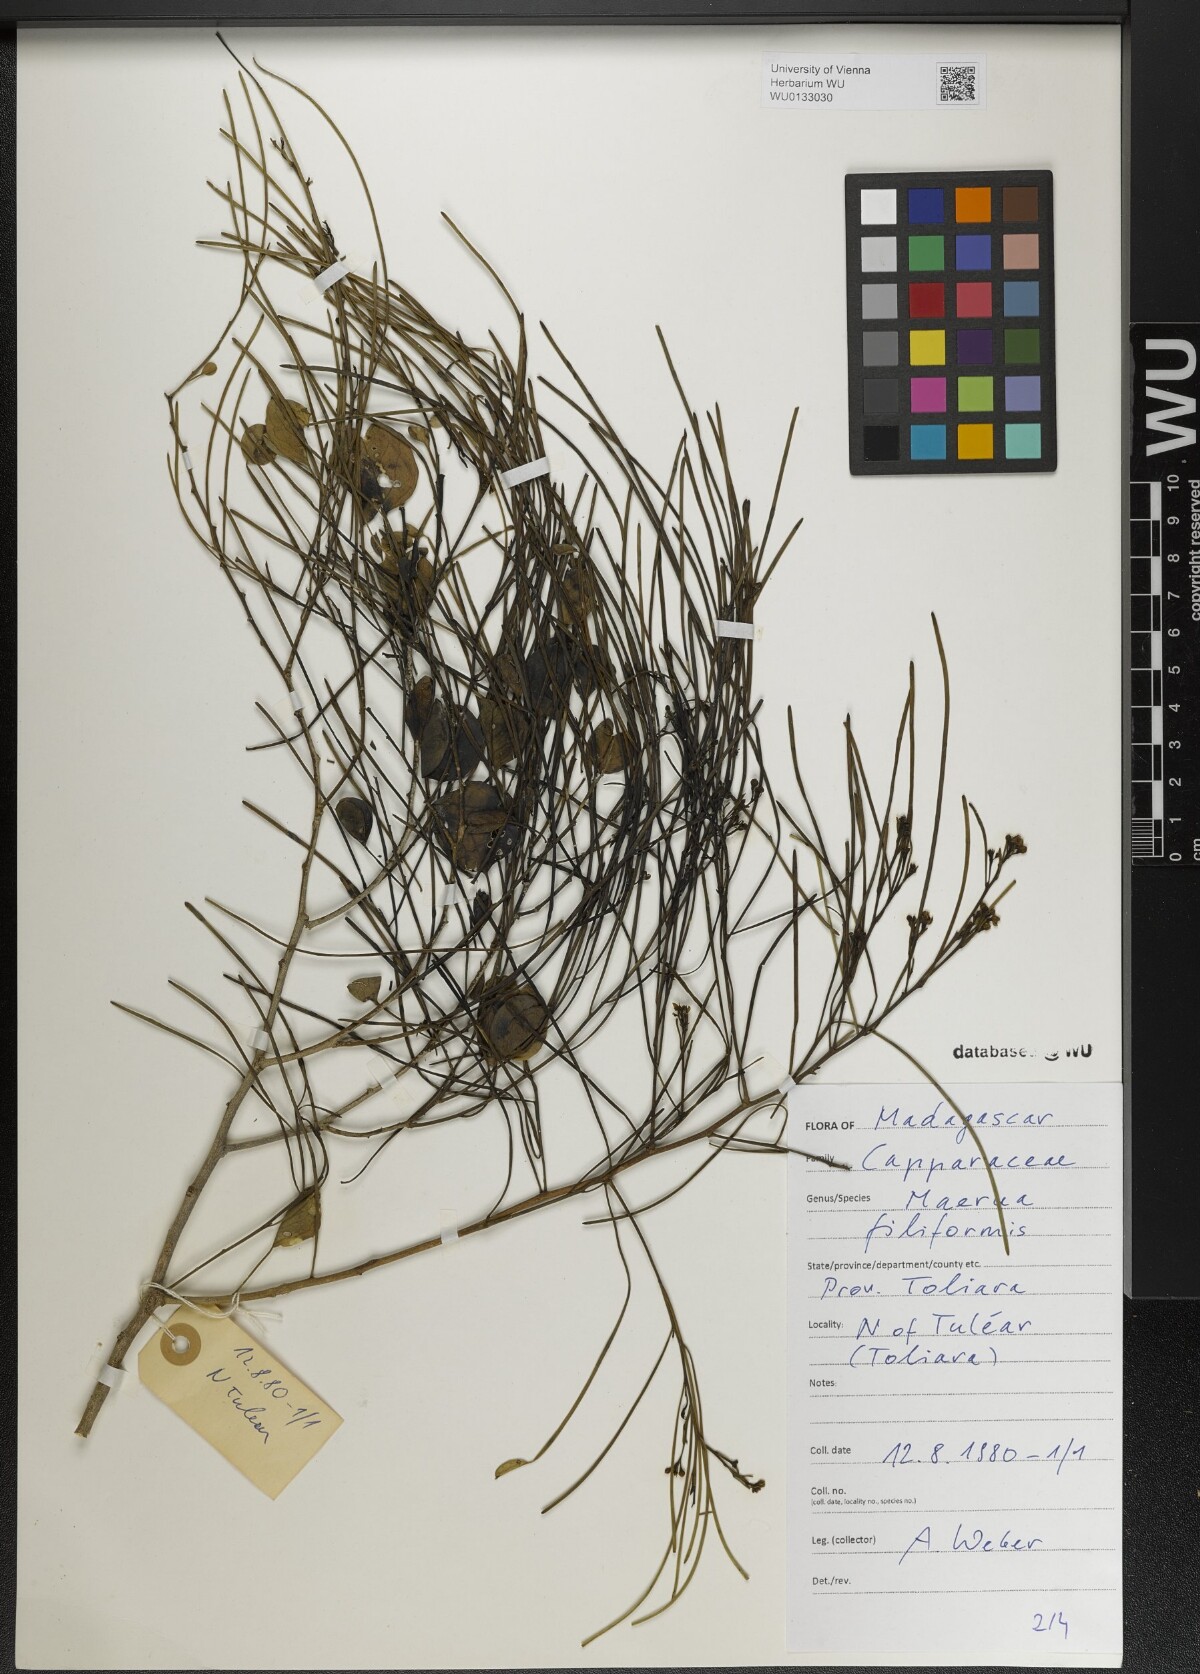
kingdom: Plantae
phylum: Tracheophyta
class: Magnoliopsida
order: Brassicales
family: Capparaceae
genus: Maerua
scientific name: Maerua filiformis
